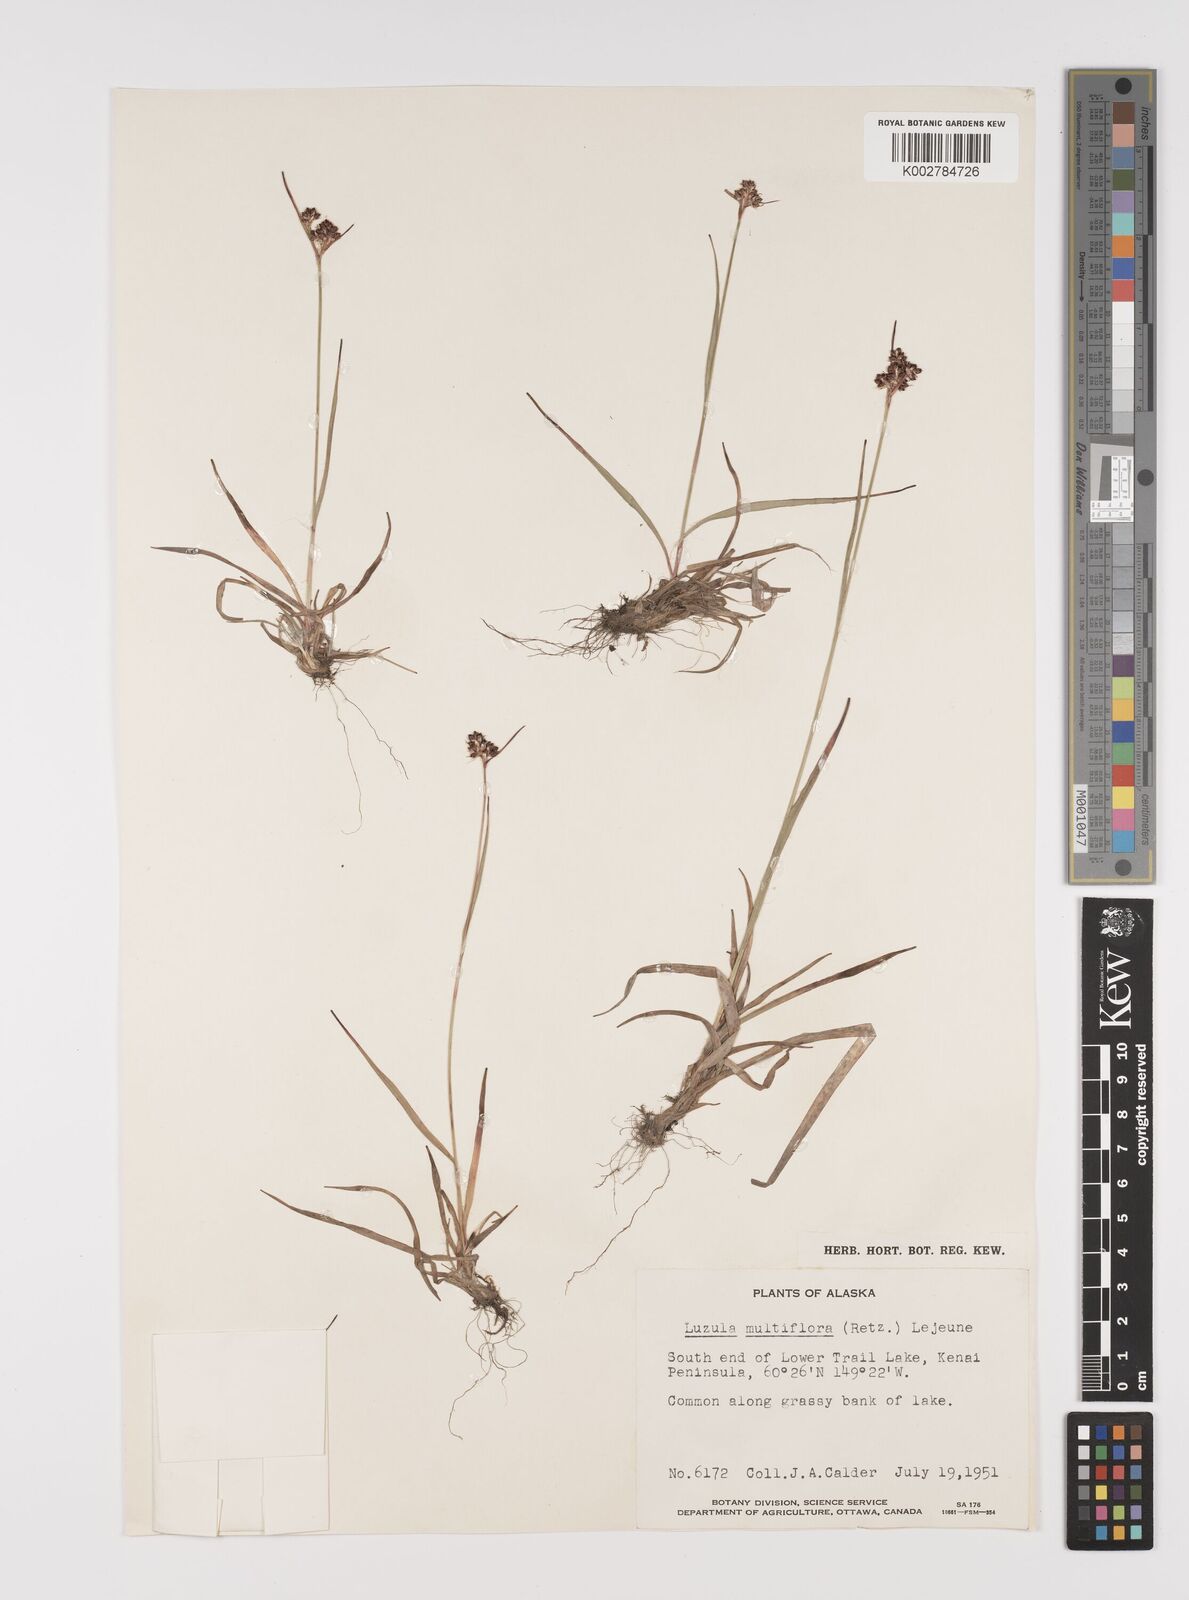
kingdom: Plantae
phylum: Tracheophyta
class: Liliopsida
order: Poales
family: Juncaceae
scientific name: Juncaceae
